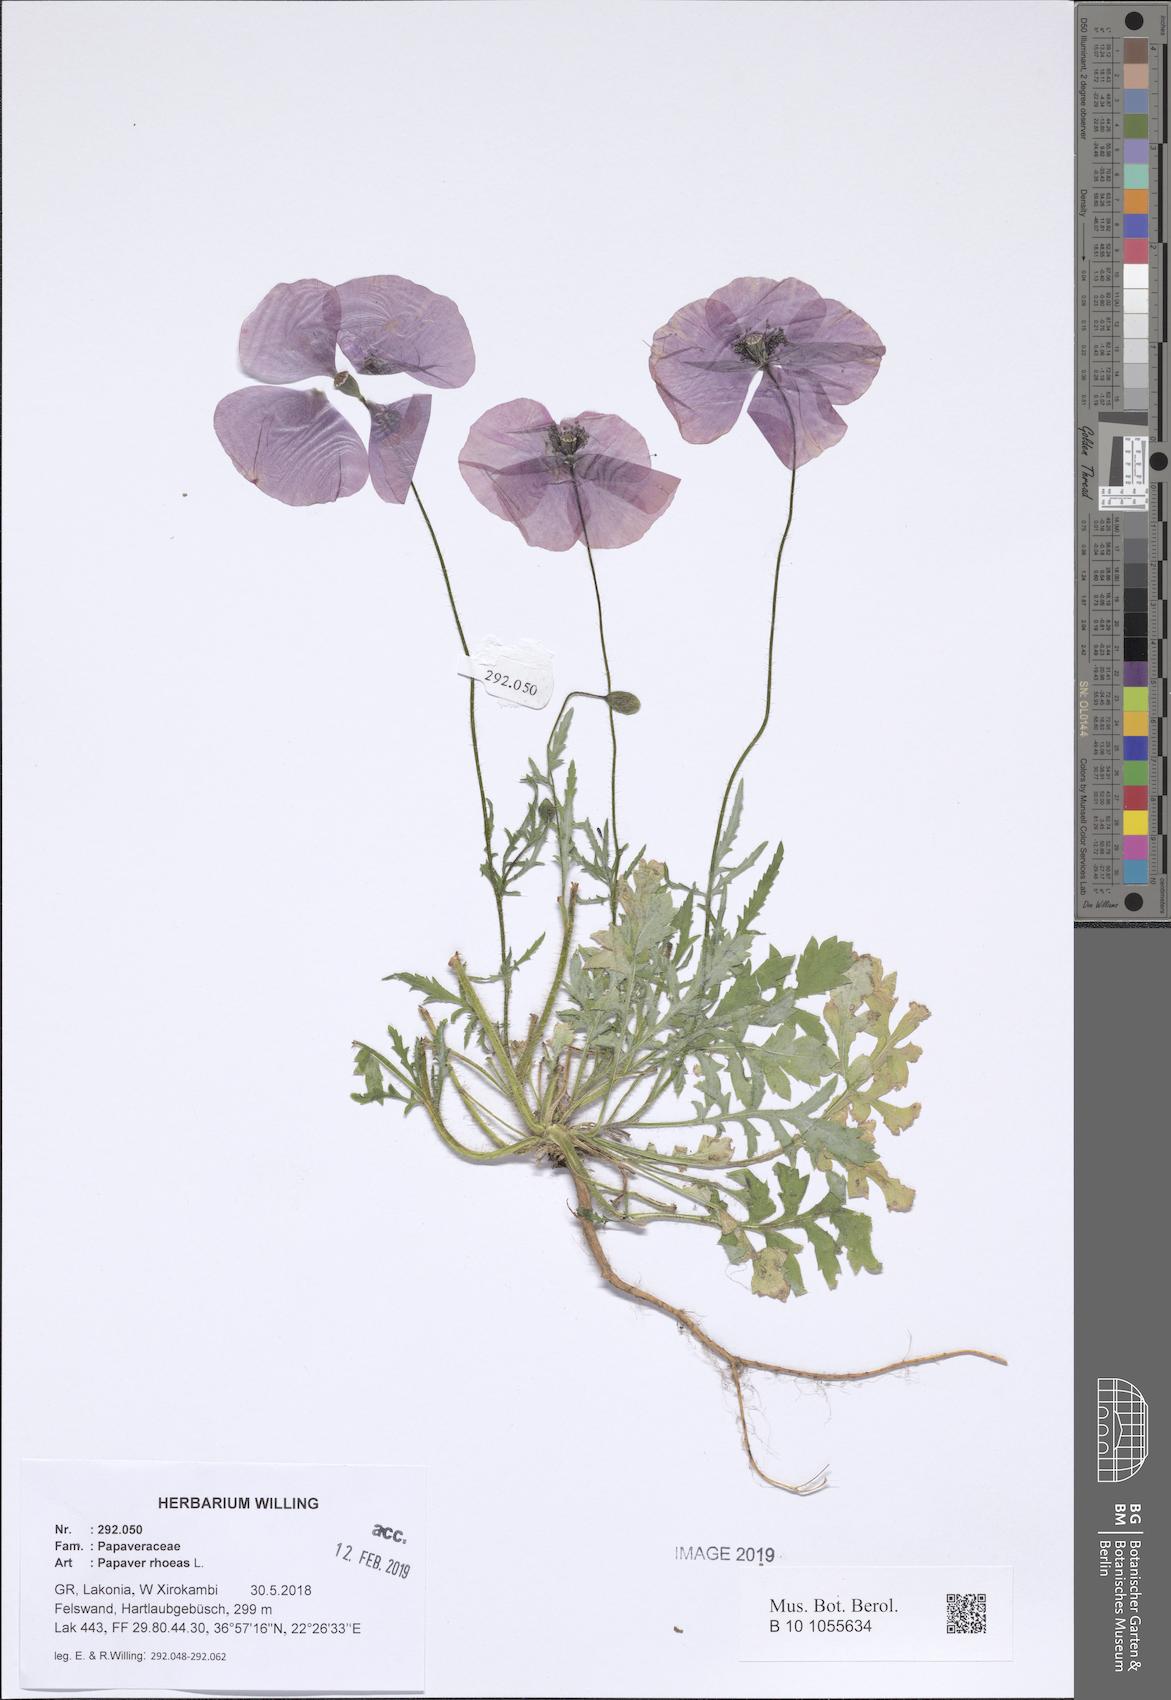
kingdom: Plantae
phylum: Tracheophyta
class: Magnoliopsida
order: Ranunculales
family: Papaveraceae
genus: Papaver
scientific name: Papaver rhoeas
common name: Corn poppy
